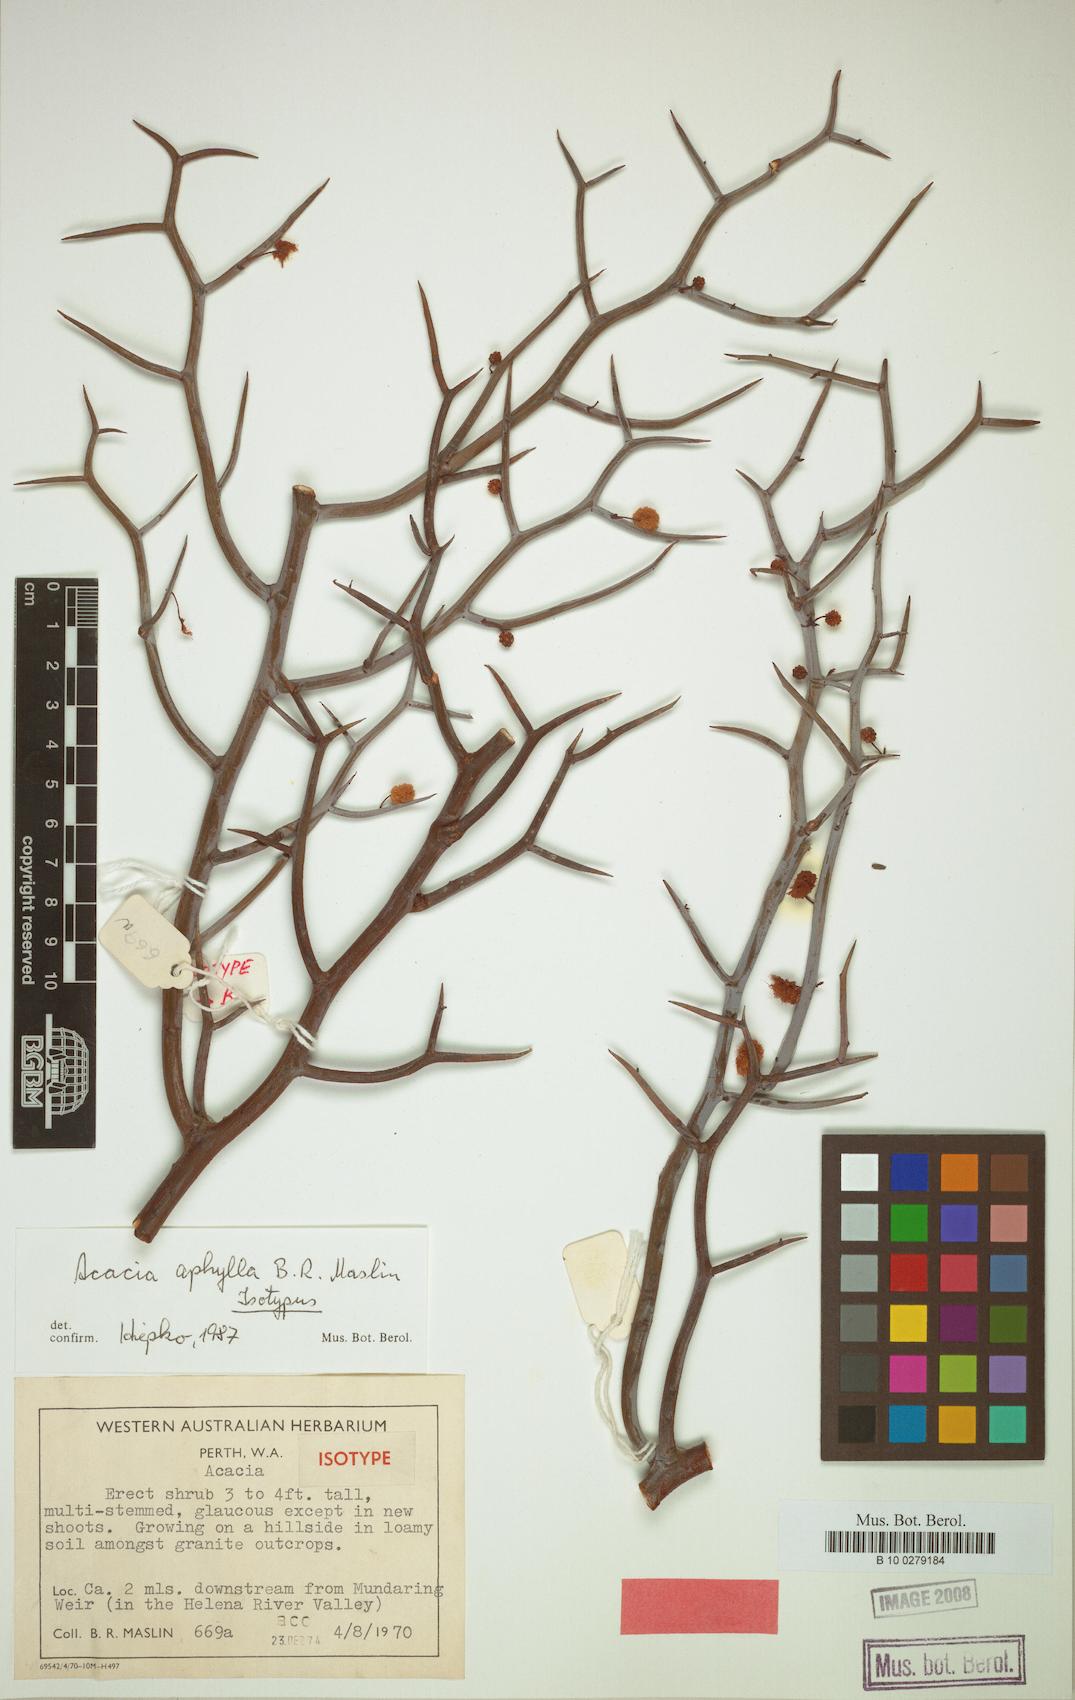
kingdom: Plantae
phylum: Tracheophyta
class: Magnoliopsida
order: Fabales
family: Fabaceae
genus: Acacia
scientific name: Acacia aphylla
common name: Leafless rock wattle
